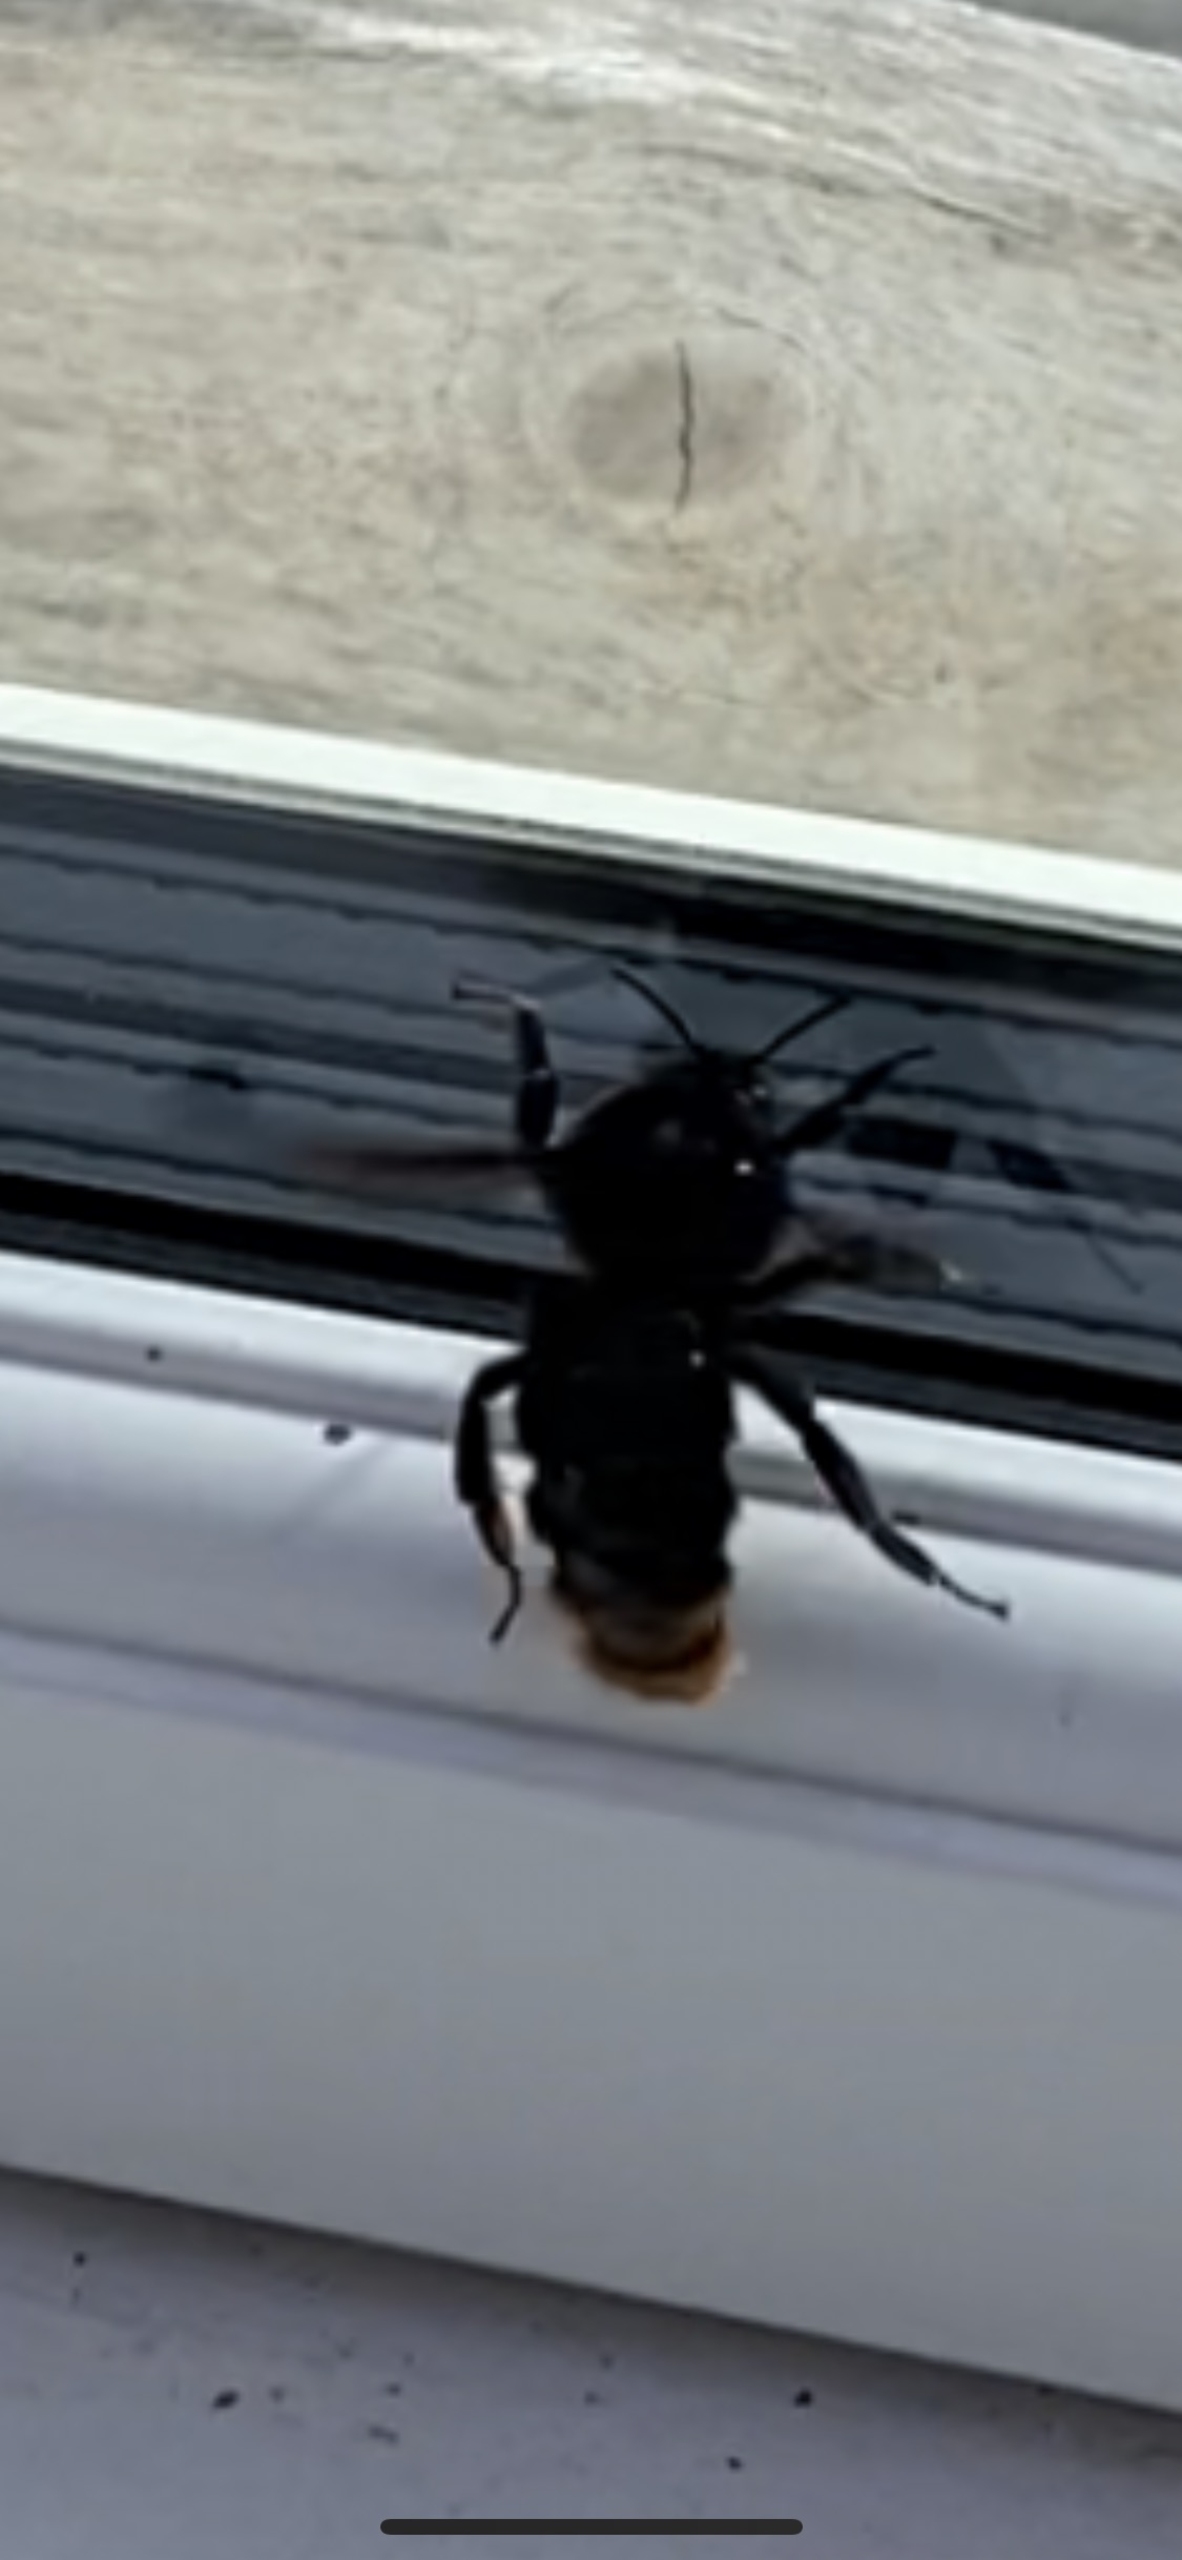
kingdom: Animalia
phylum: Arthropoda
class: Insecta
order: Hymenoptera
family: Apidae
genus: Bombus
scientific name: Bombus rupestris
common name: Stensnyltehumle
